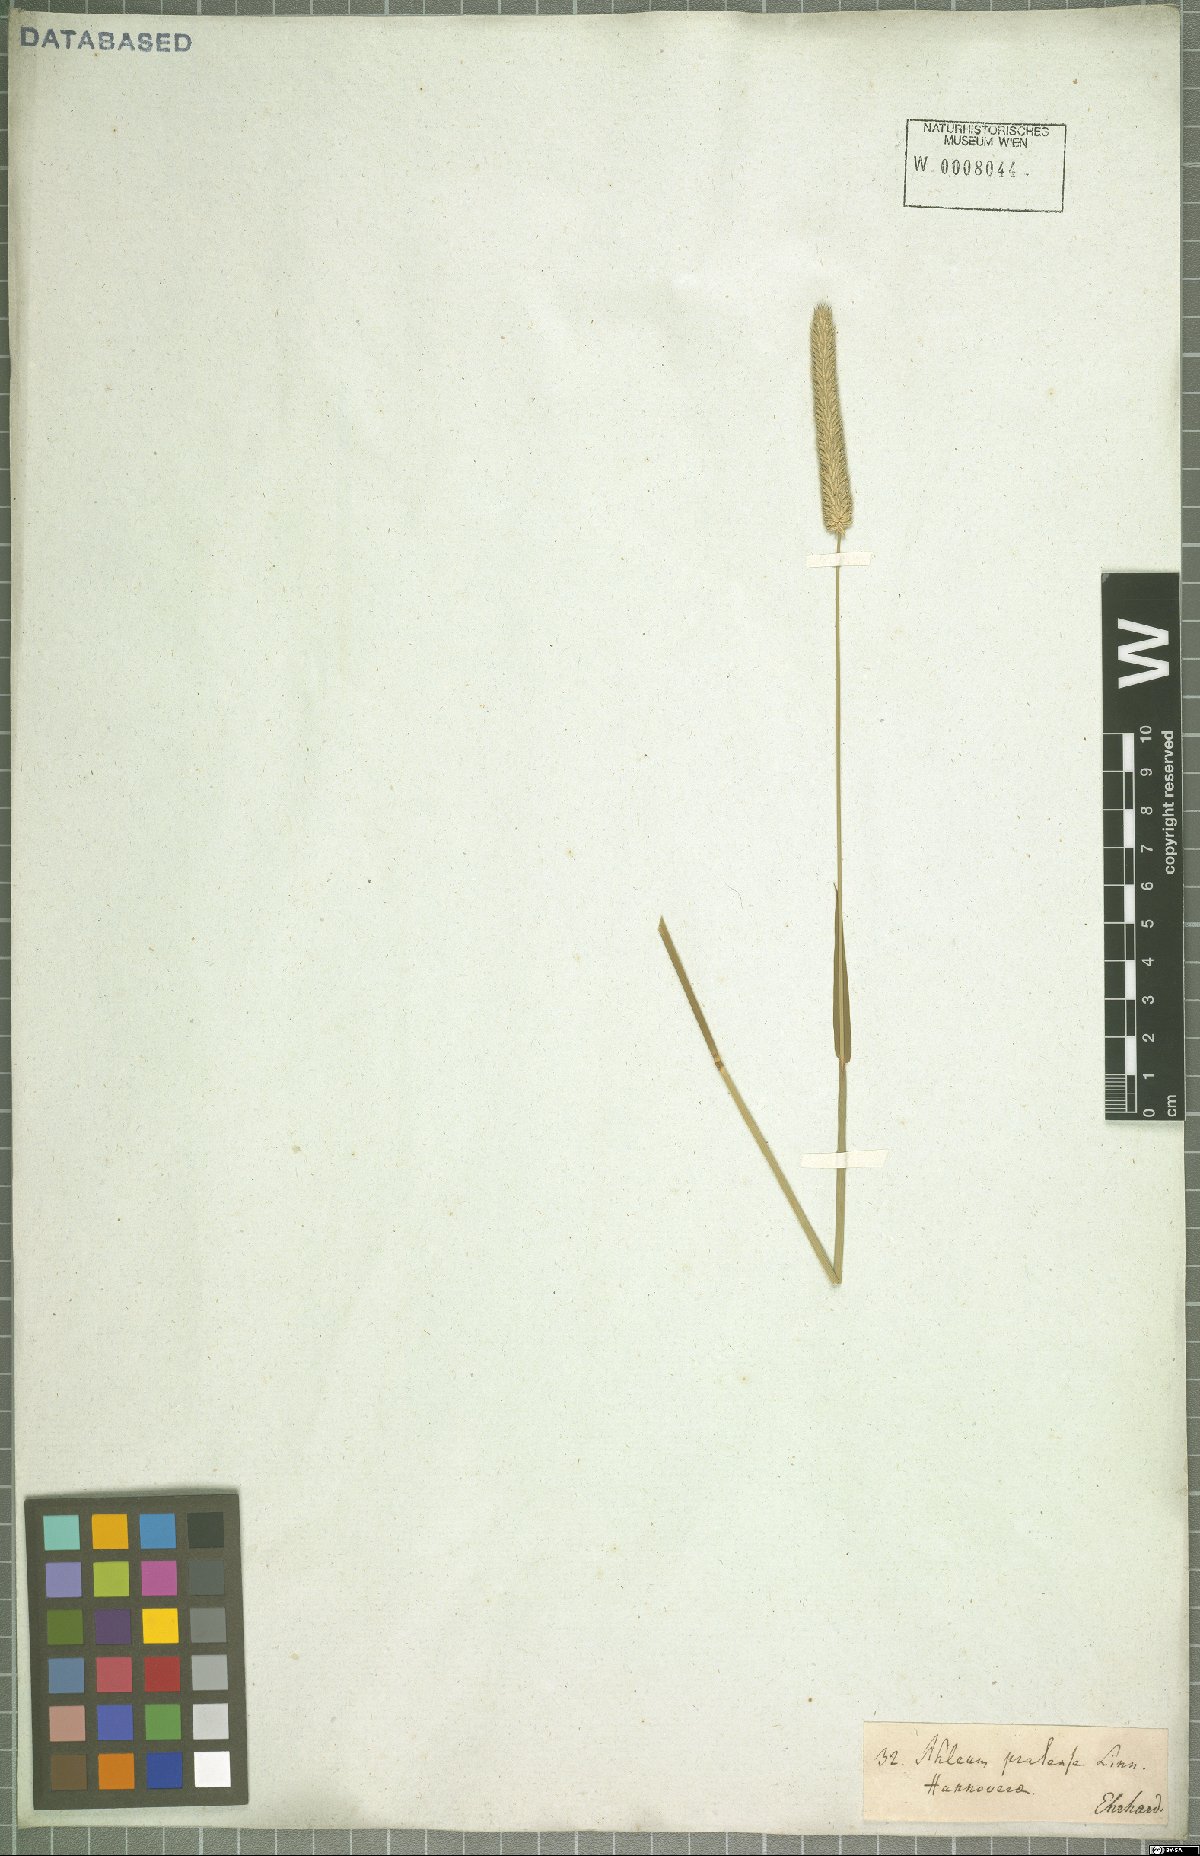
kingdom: Plantae
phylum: Tracheophyta
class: Liliopsida
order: Poales
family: Poaceae
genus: Phleum
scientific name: Phleum pratense
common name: Timothy grass
